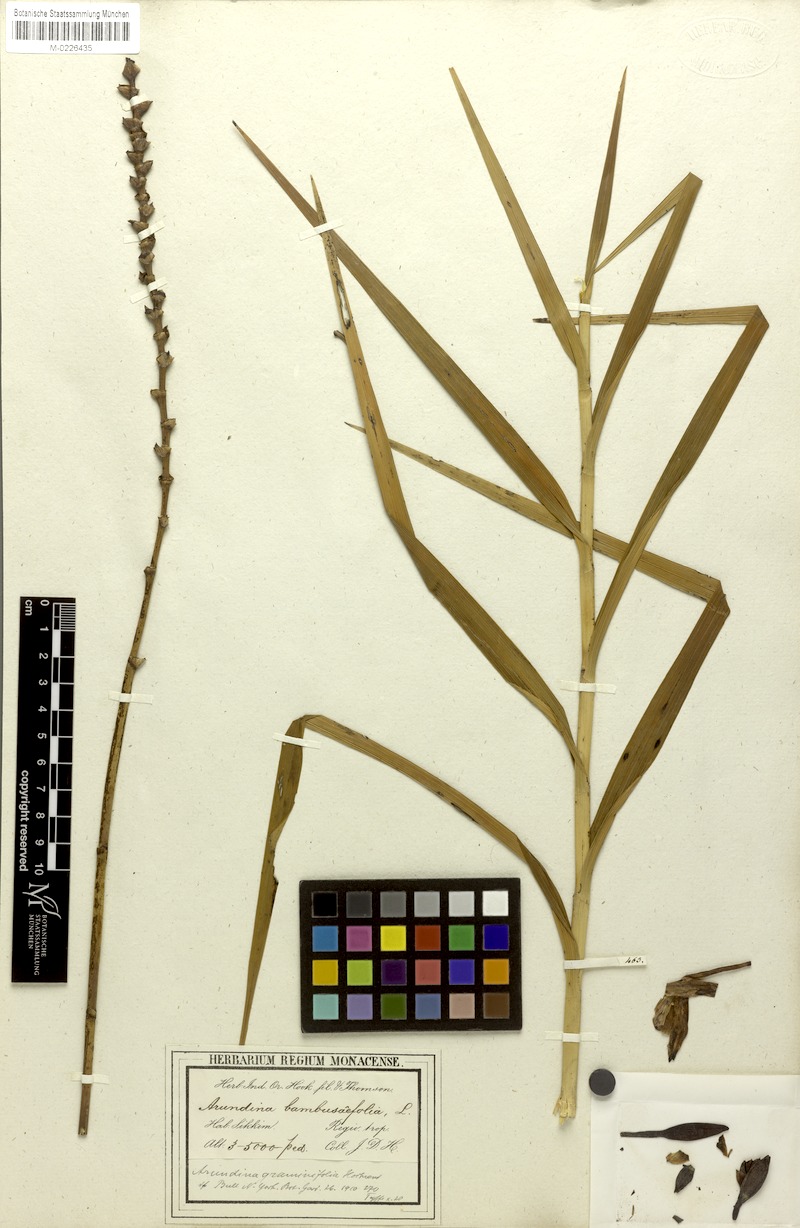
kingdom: Plantae
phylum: Tracheophyta
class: Liliopsida
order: Asparagales
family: Orchidaceae
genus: Arundina
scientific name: Arundina graminifolia
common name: Bamboo orchid
